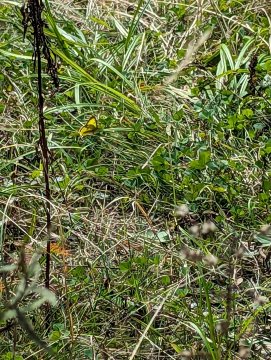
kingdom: Animalia
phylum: Arthropoda
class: Insecta
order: Lepidoptera
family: Pieridae
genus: Colias
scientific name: Colias philodice
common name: Clouded Sulphur
